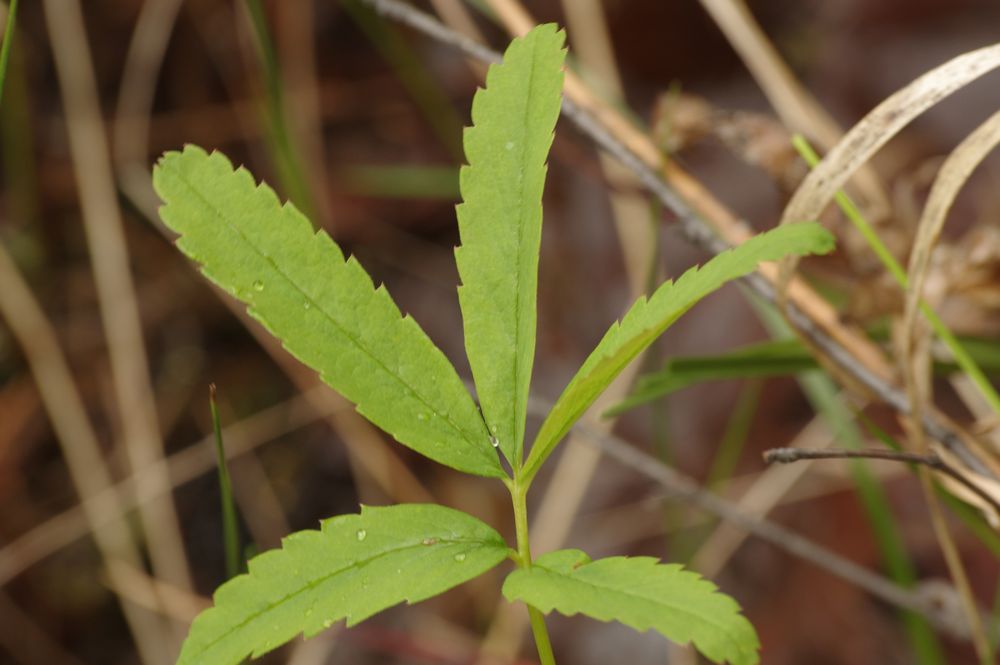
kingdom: Plantae
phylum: Tracheophyta
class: Magnoliopsida
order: Rosales
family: Rosaceae
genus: Comarum
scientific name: Comarum palustre
